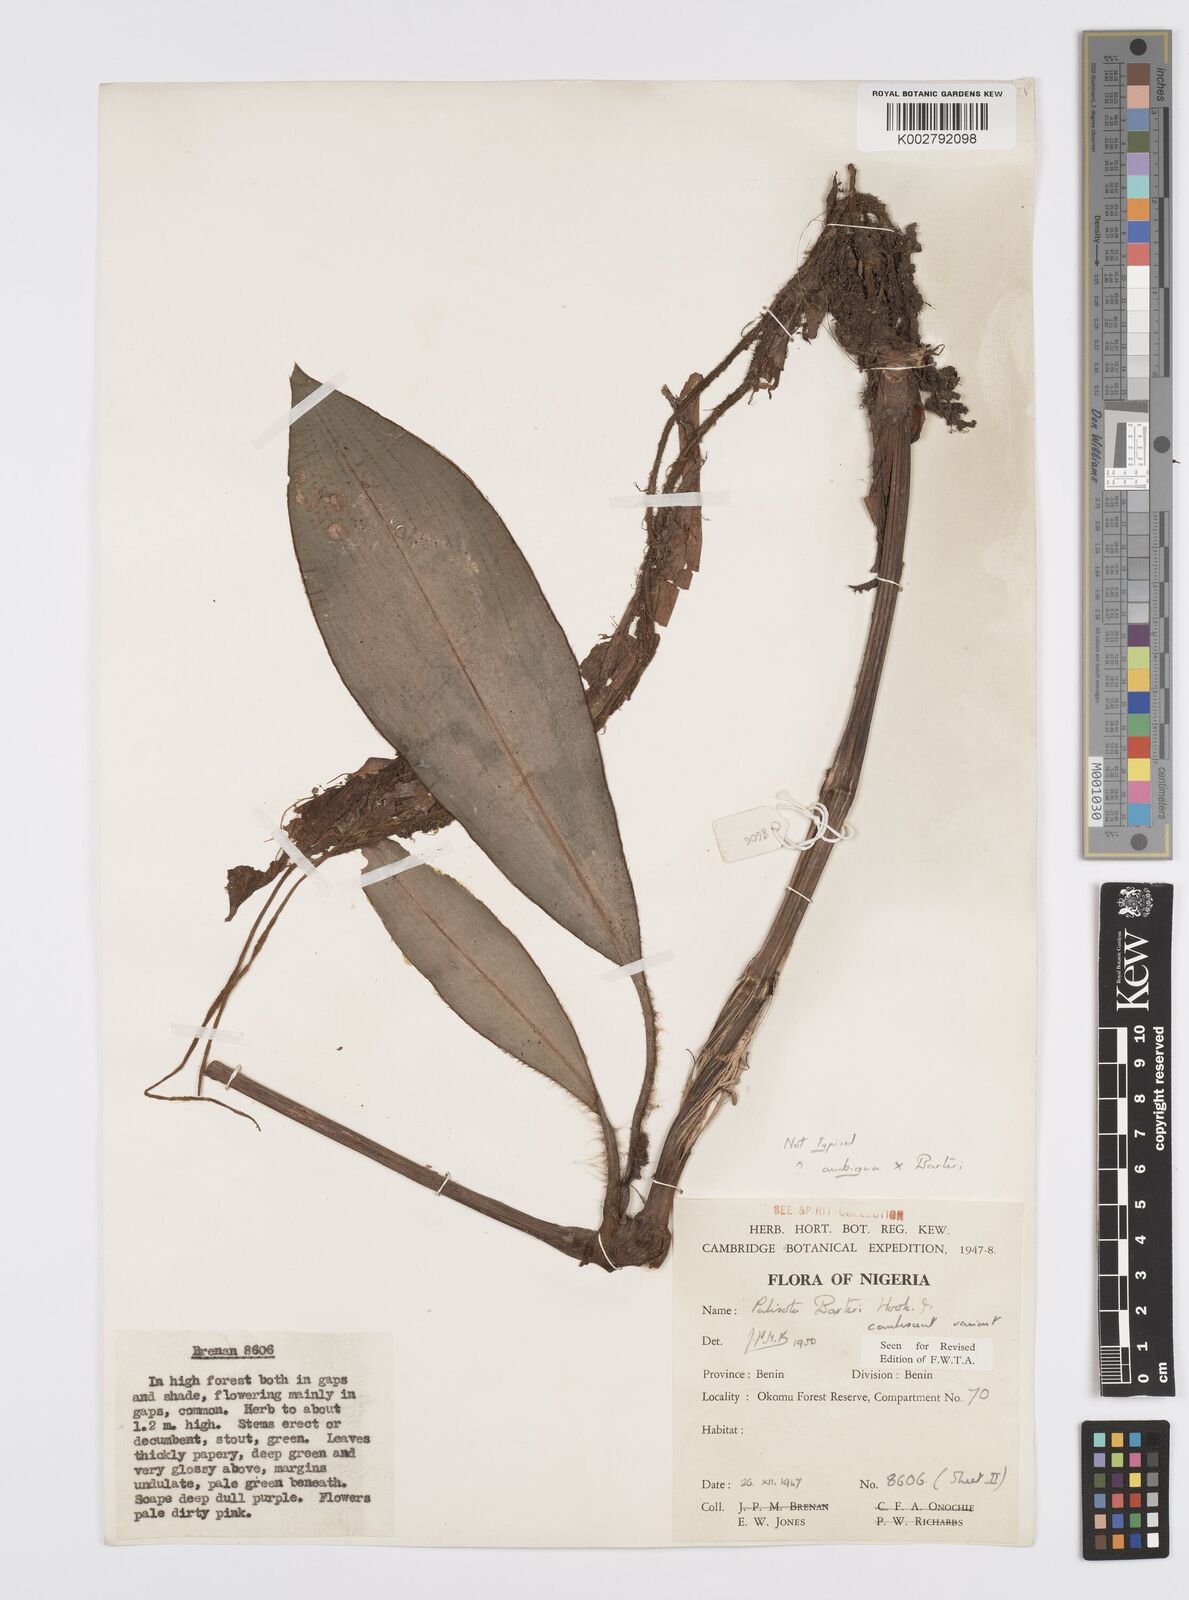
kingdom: Plantae
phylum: Tracheophyta
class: Liliopsida
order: Commelinales
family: Commelinaceae
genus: Palisota
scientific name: Palisota barteri
